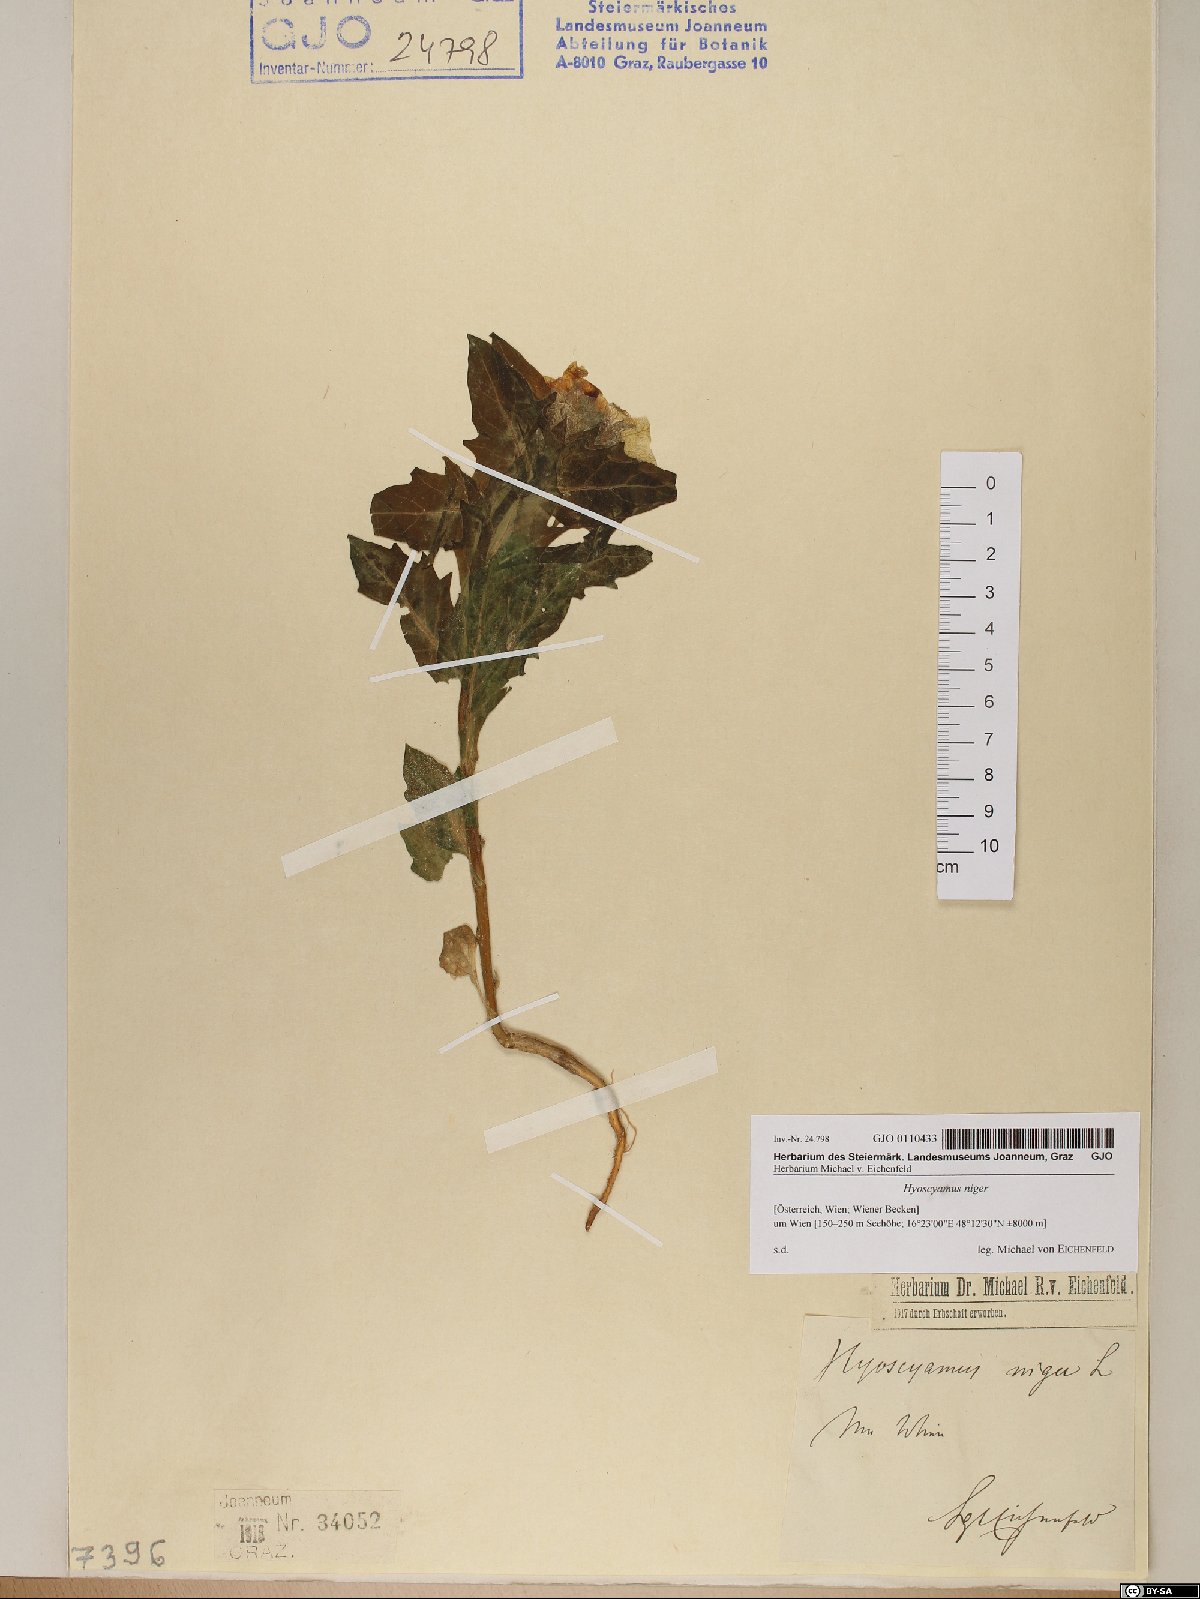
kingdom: Plantae
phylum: Tracheophyta
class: Magnoliopsida
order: Solanales
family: Solanaceae
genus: Hyoscyamus
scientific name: Hyoscyamus niger
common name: Henbane
